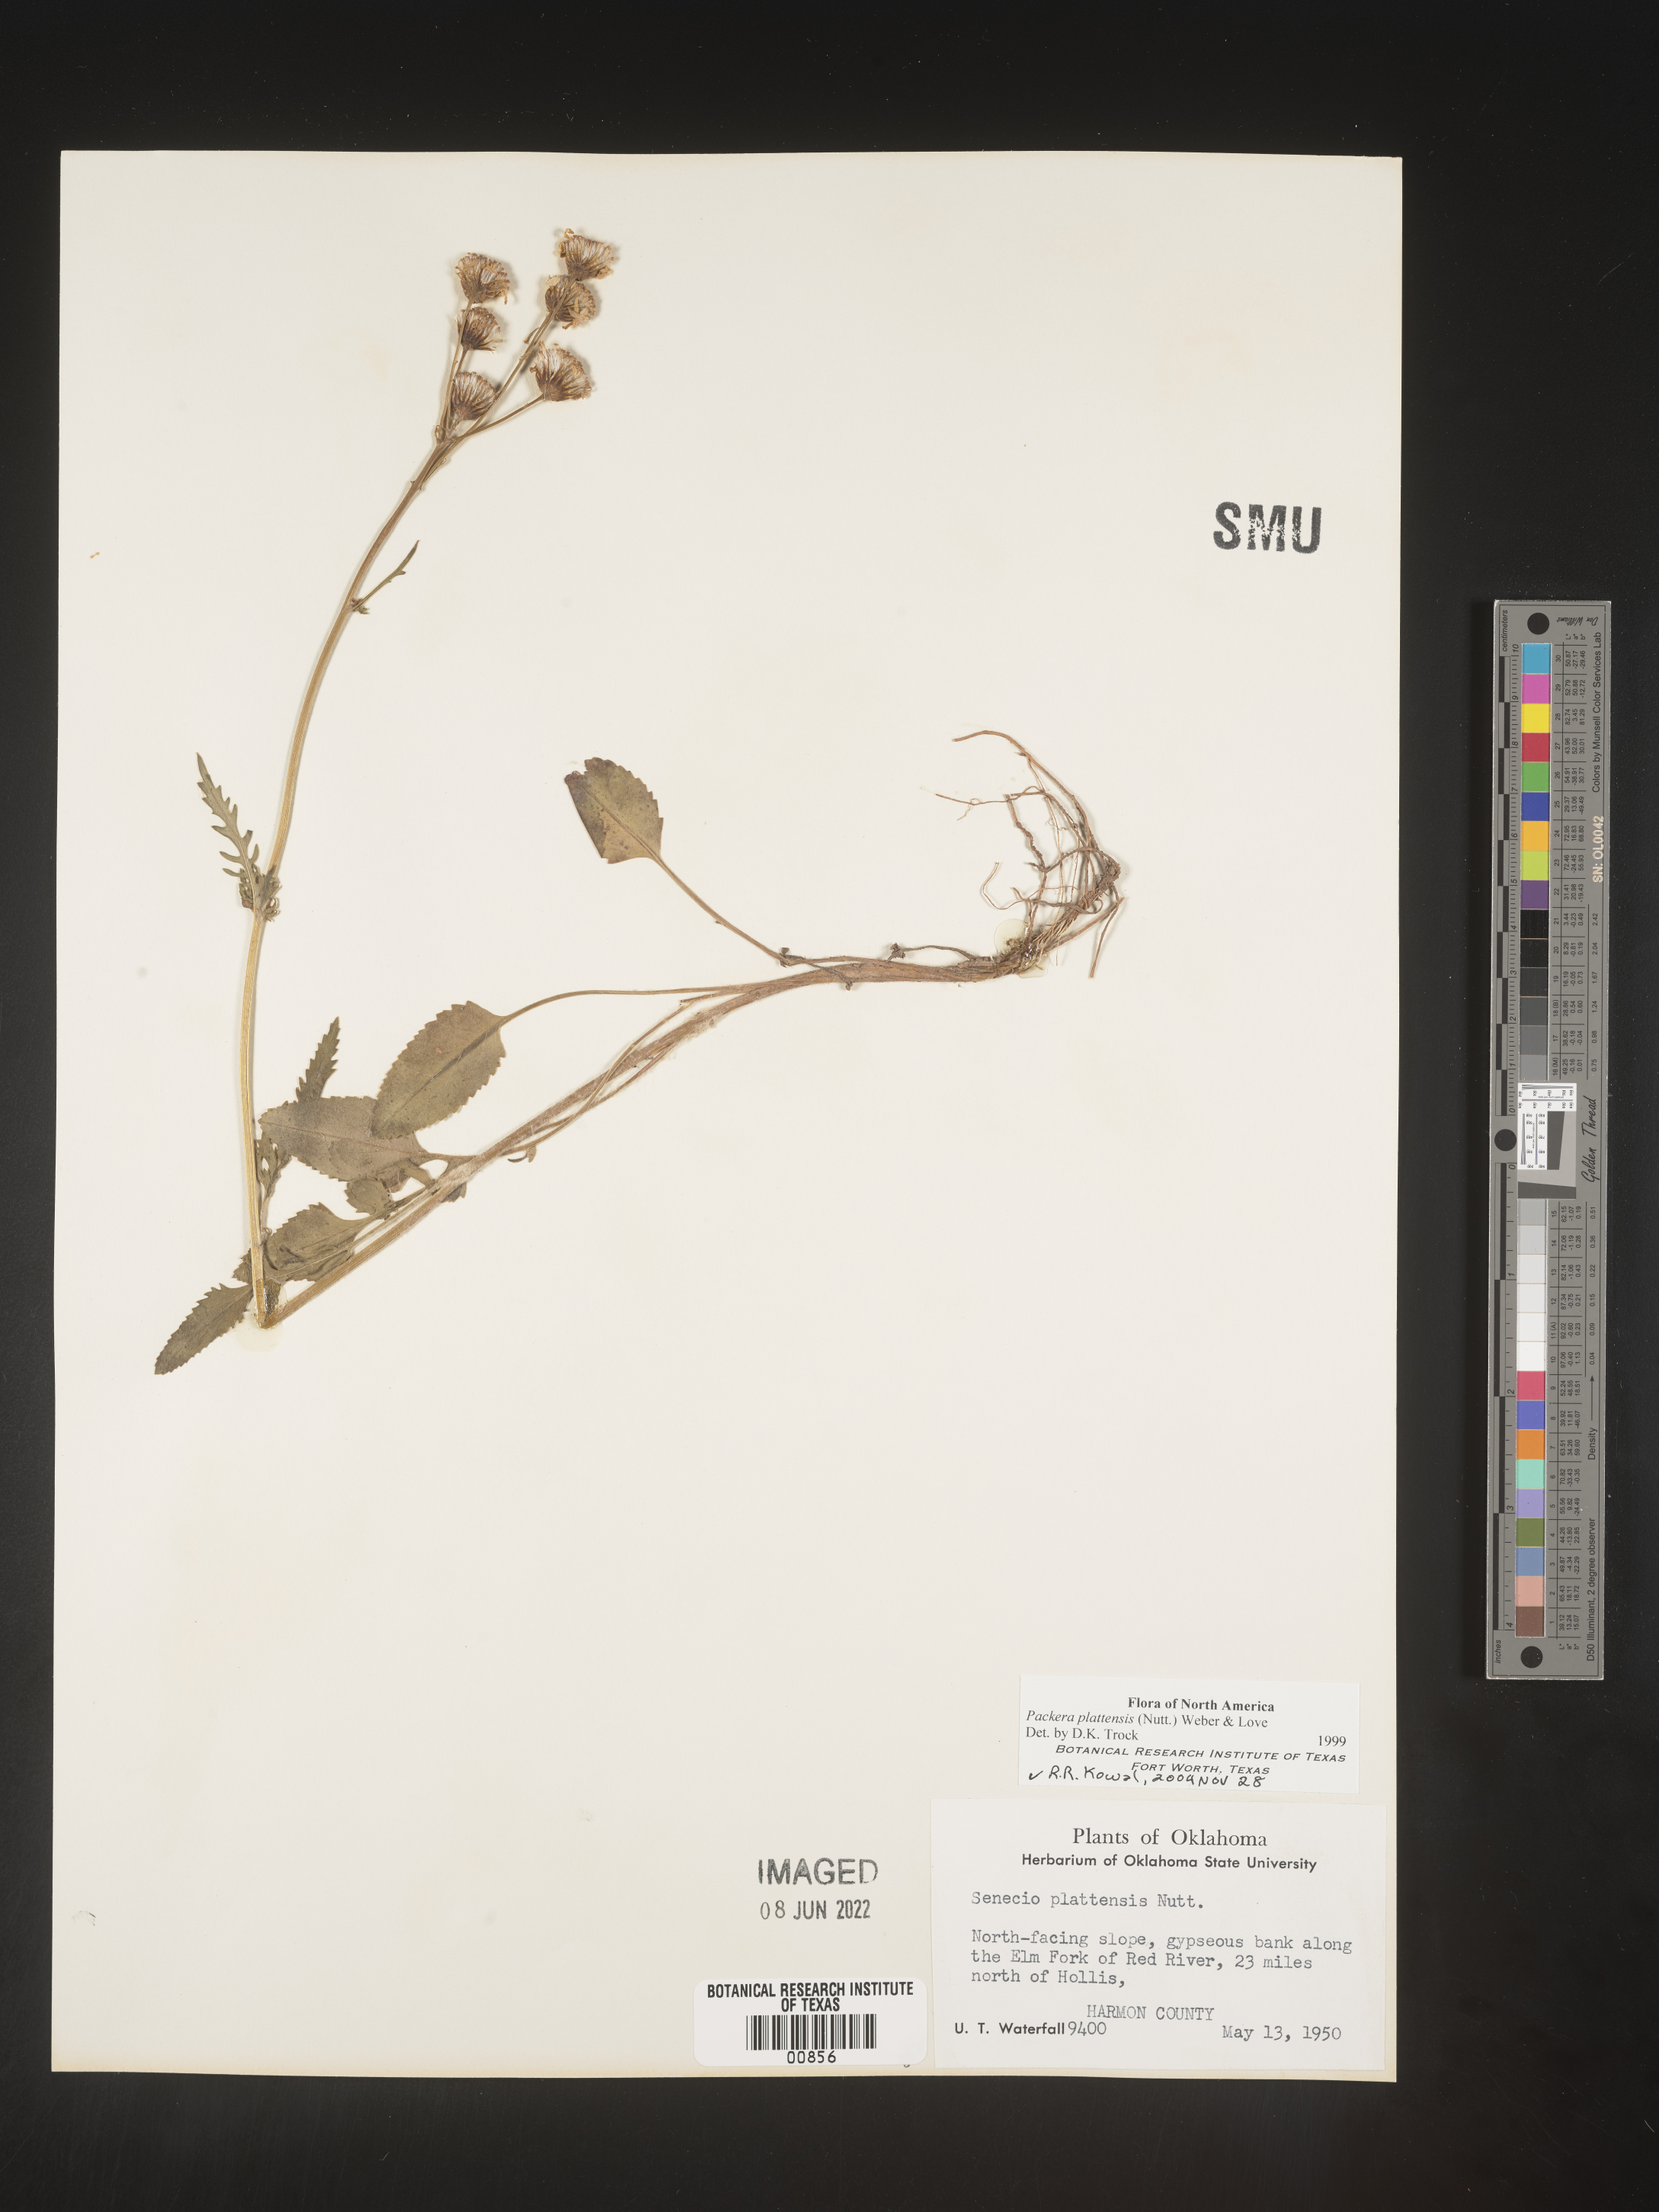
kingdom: Plantae
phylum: Tracheophyta
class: Magnoliopsida
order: Asterales
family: Asteraceae
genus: Packera
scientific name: Packera plattensis
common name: Prairie groundsel
